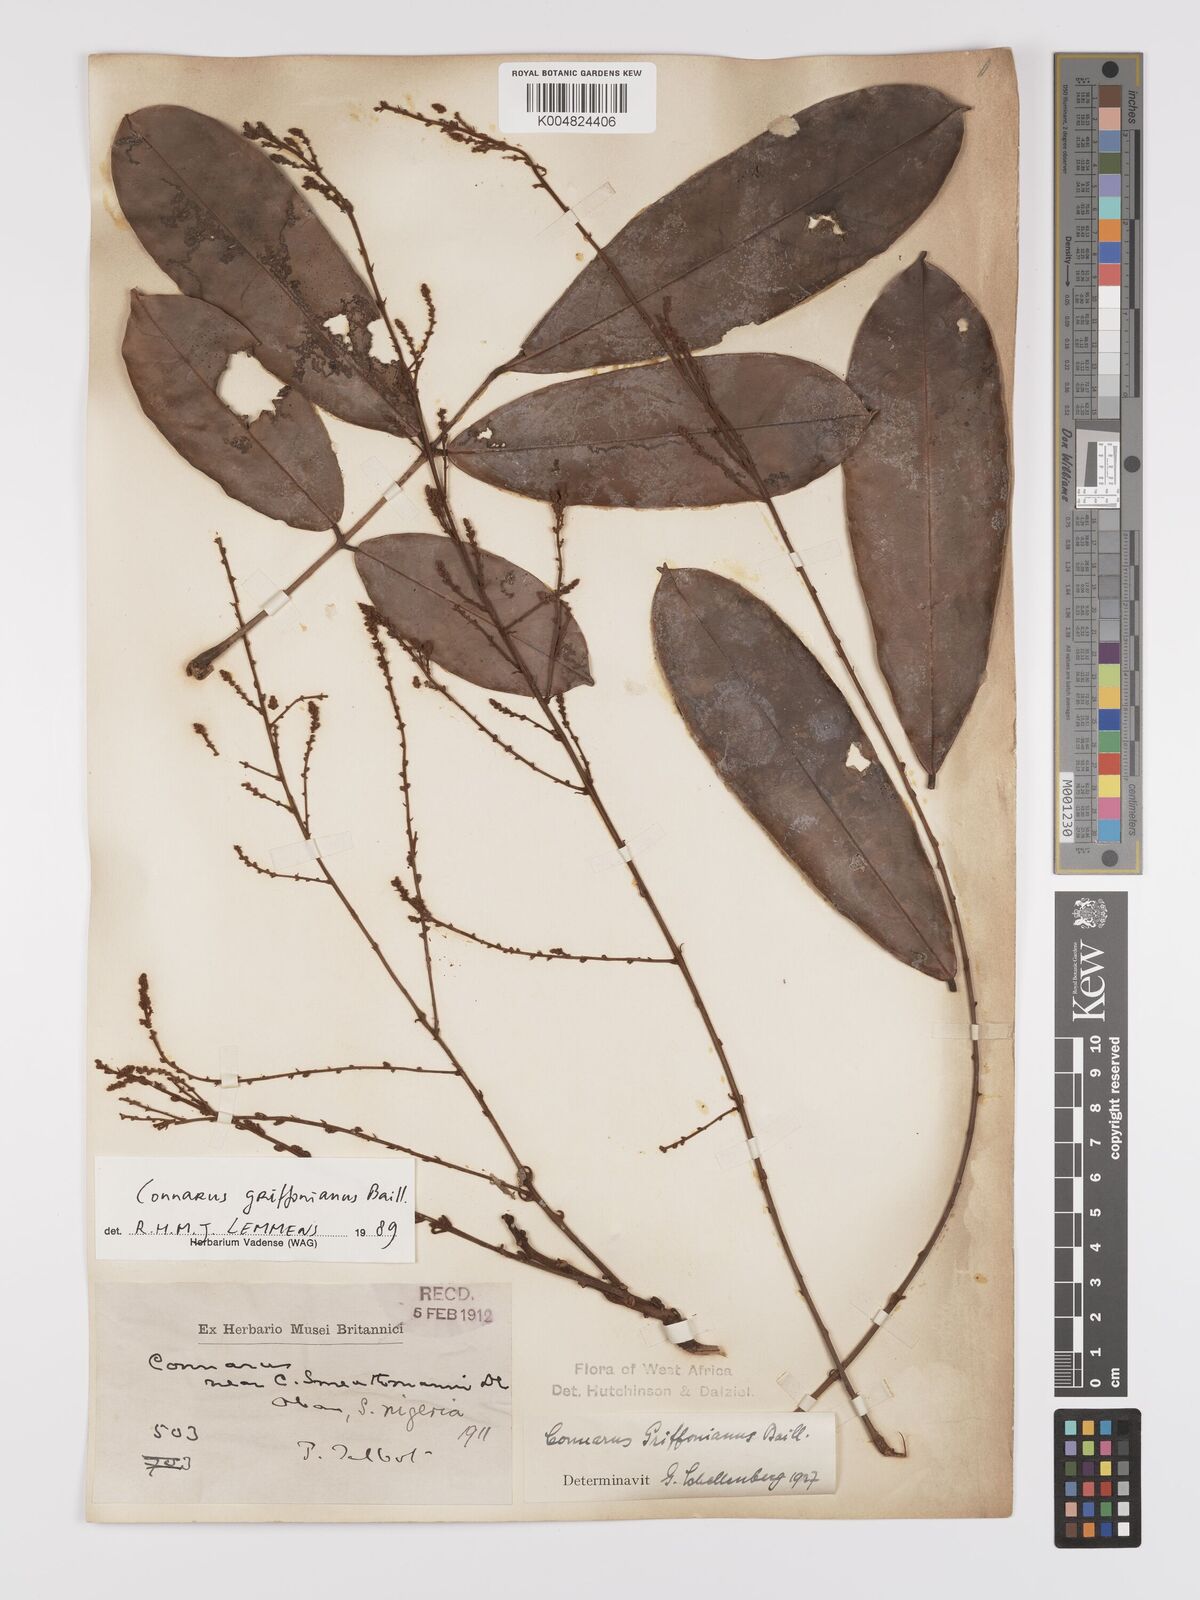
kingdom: Plantae
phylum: Tracheophyta
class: Magnoliopsida
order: Oxalidales
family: Connaraceae
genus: Connarus
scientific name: Connarus griffonianus
